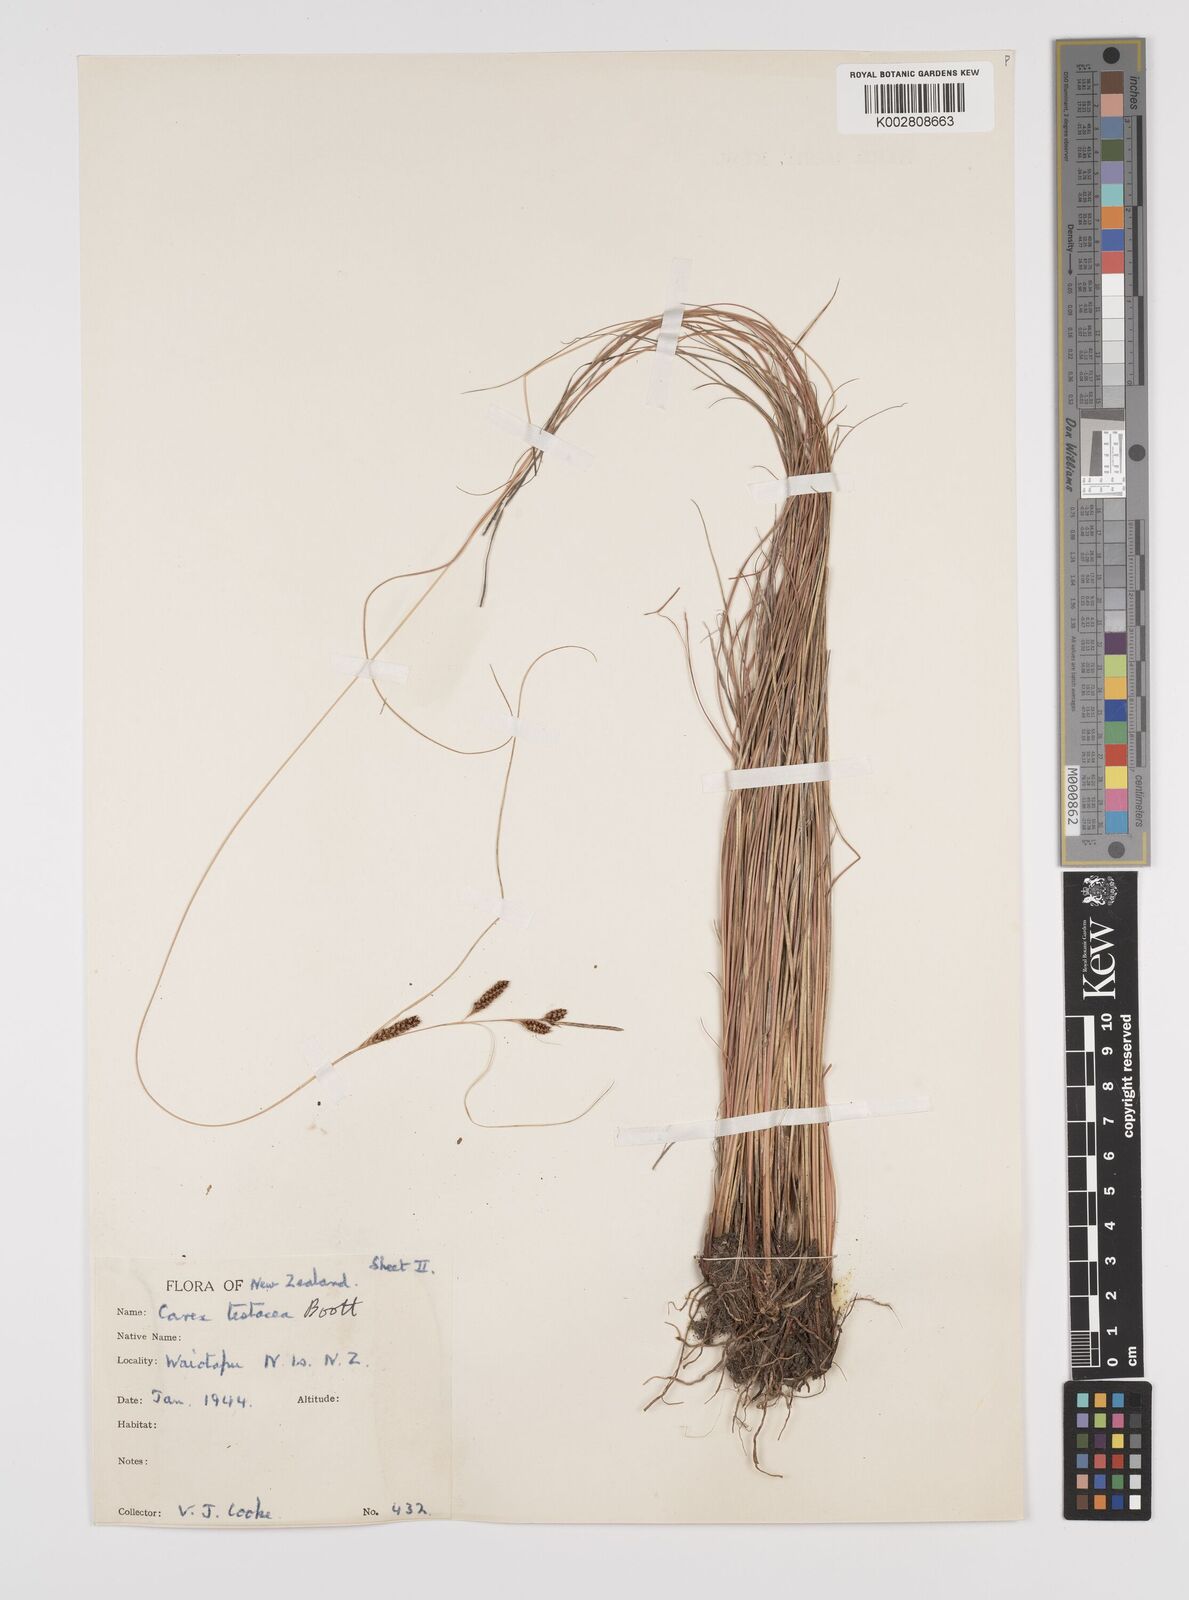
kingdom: Plantae
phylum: Tracheophyta
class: Liliopsida
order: Poales
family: Cyperaceae
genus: Carex
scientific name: Carex flagellifera
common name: Glen murray tussock
